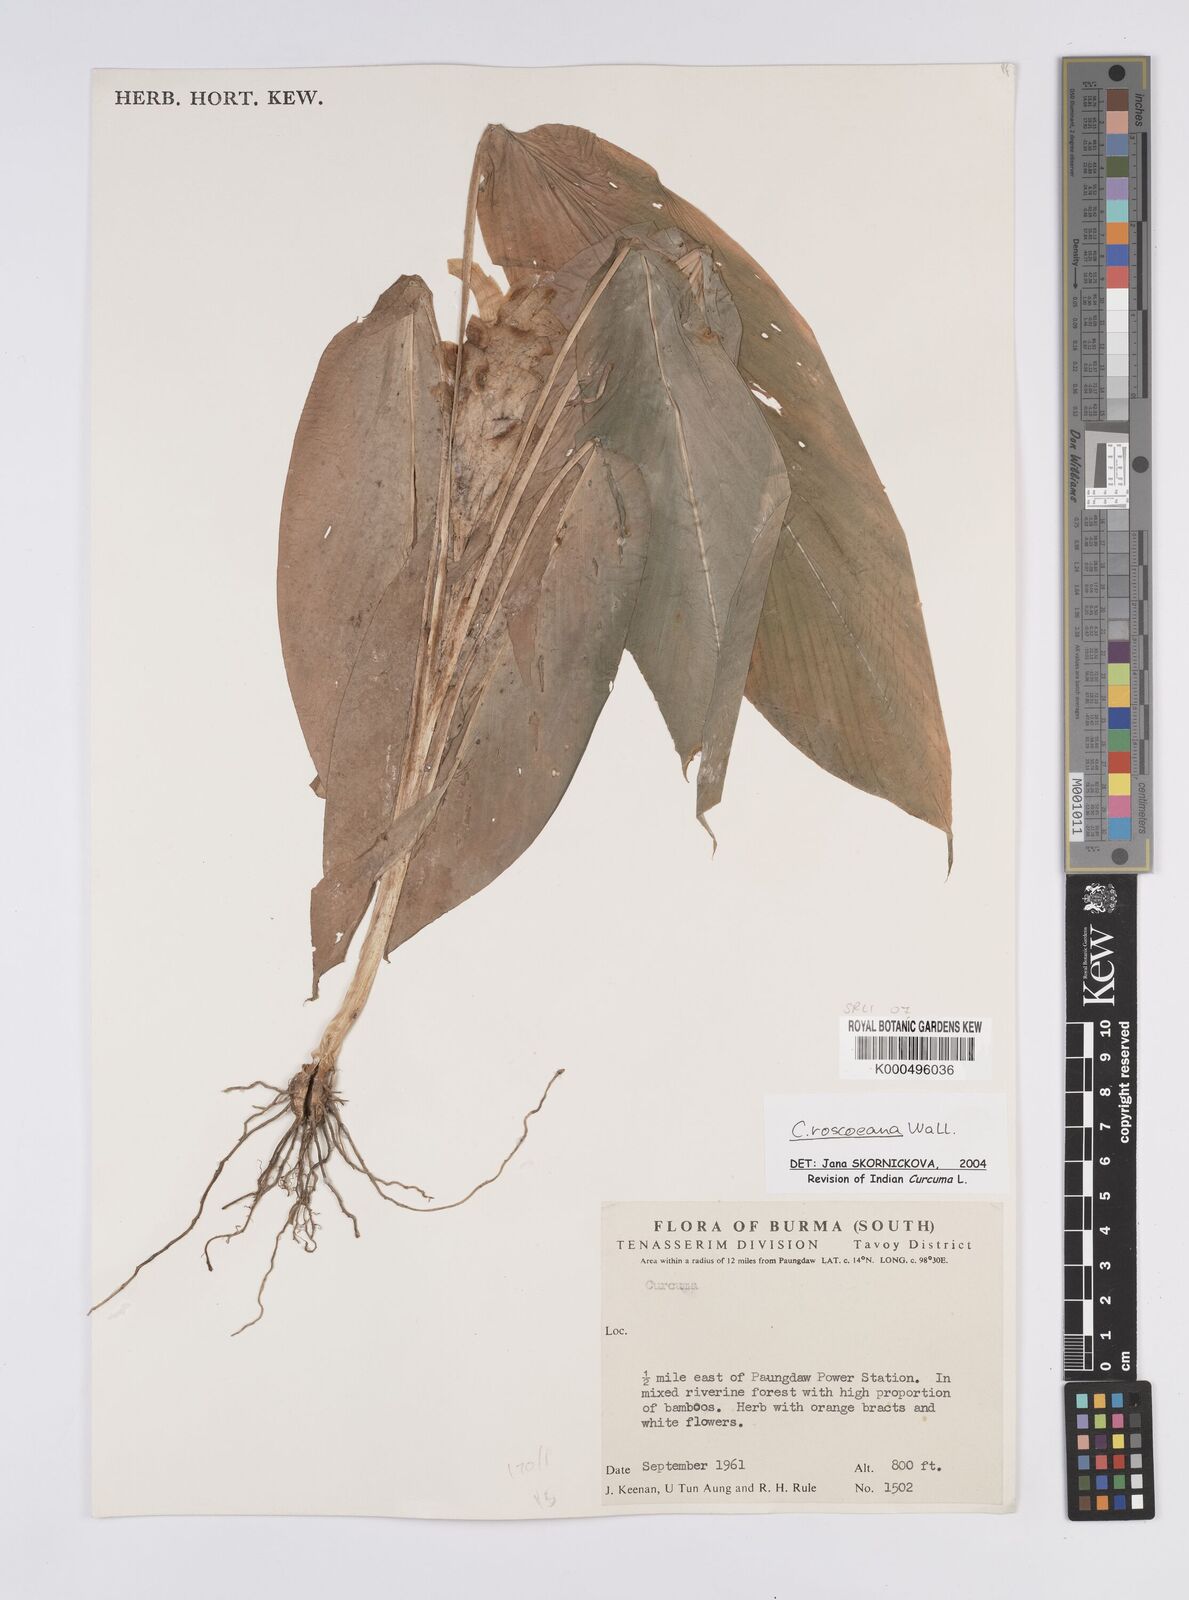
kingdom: Plantae
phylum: Tracheophyta
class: Liliopsida
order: Zingiberales
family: Zingiberaceae
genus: Curcuma
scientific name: Curcuma roscoeana
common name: Jewel of burma
